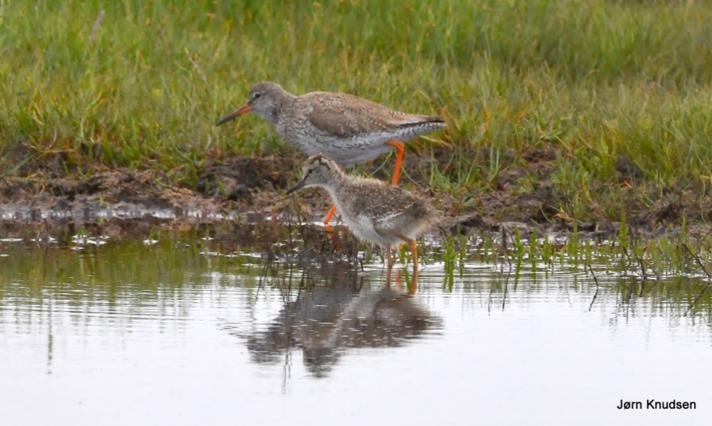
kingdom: Animalia
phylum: Chordata
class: Aves
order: Charadriiformes
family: Scolopacidae
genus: Tringa
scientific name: Tringa totanus
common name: Rødben
